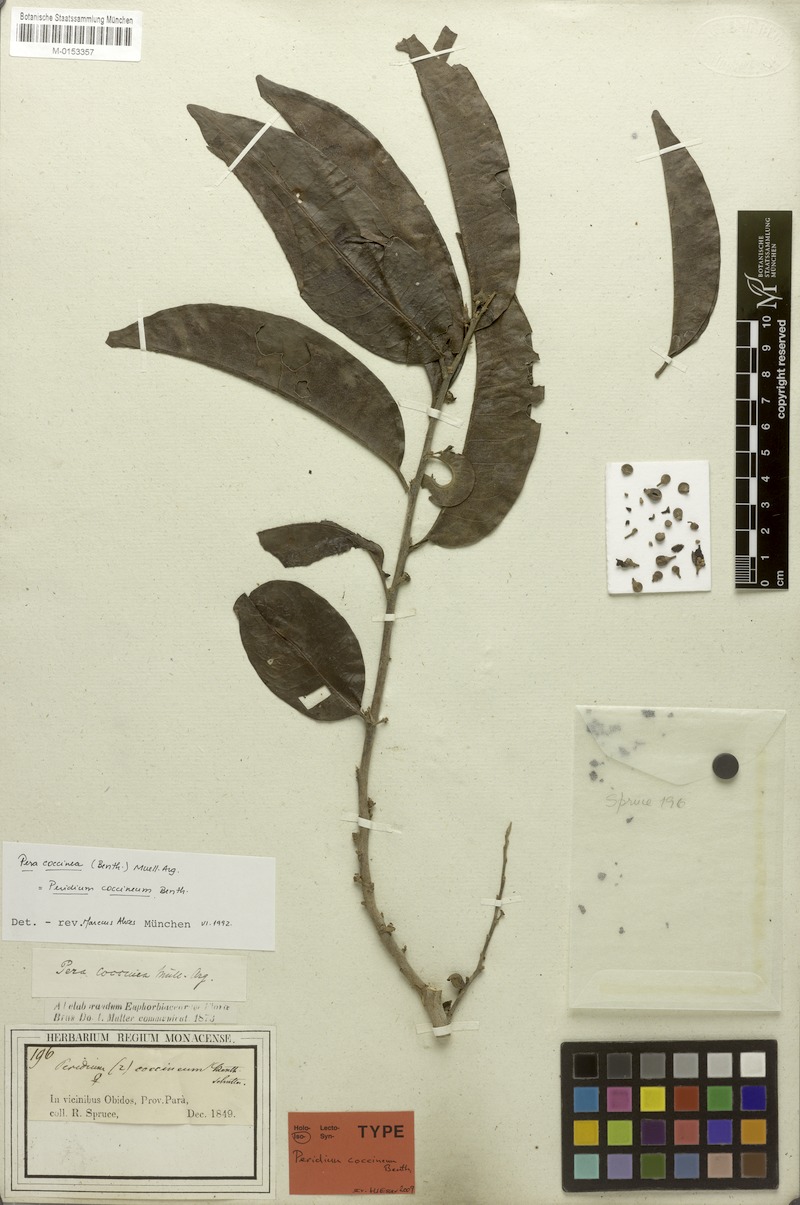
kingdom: Plantae
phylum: Tracheophyta
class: Magnoliopsida
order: Malpighiales
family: Peraceae
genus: Pera
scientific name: Pera coccinea
